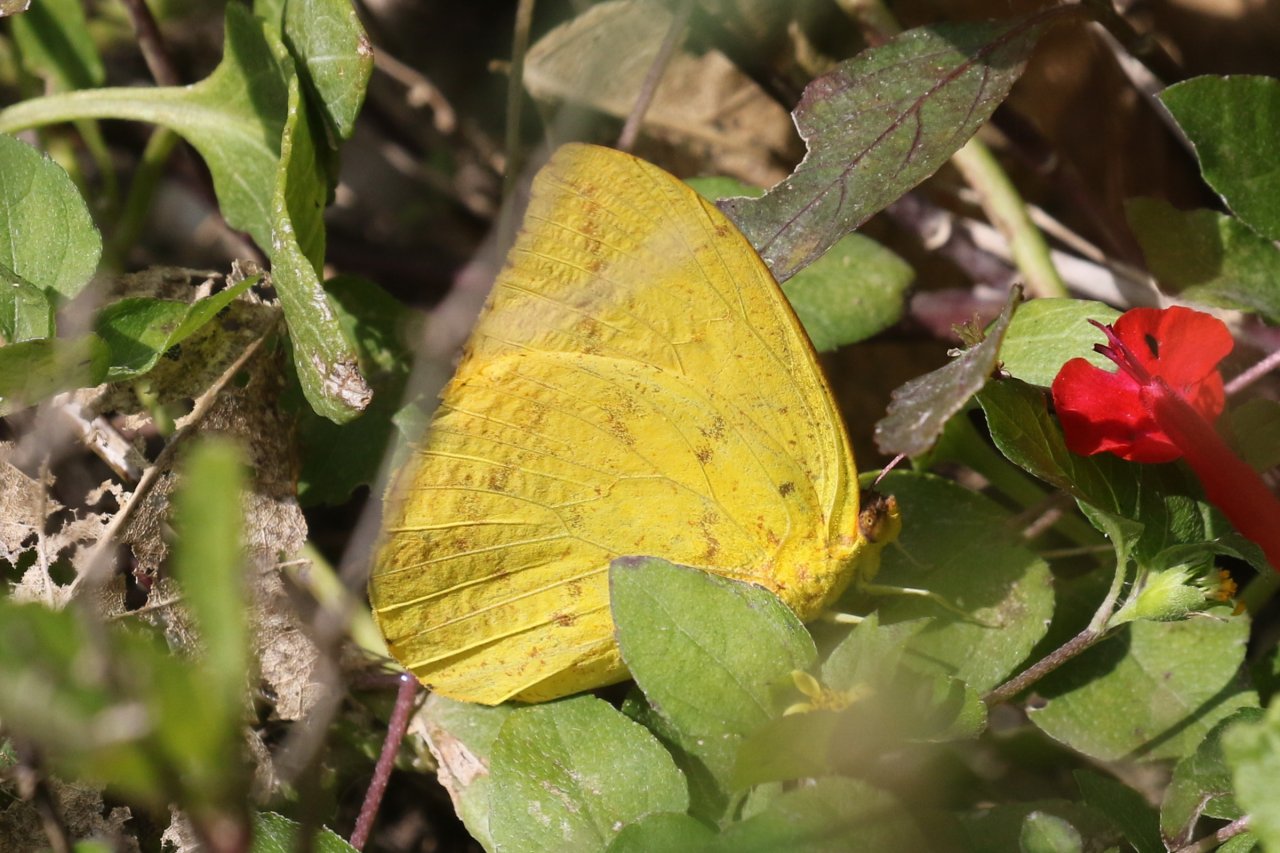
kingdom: Animalia
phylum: Arthropoda
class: Insecta
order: Lepidoptera
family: Pieridae
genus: Phoebis
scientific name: Phoebis agarithe
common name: Large Orange Sulphur
